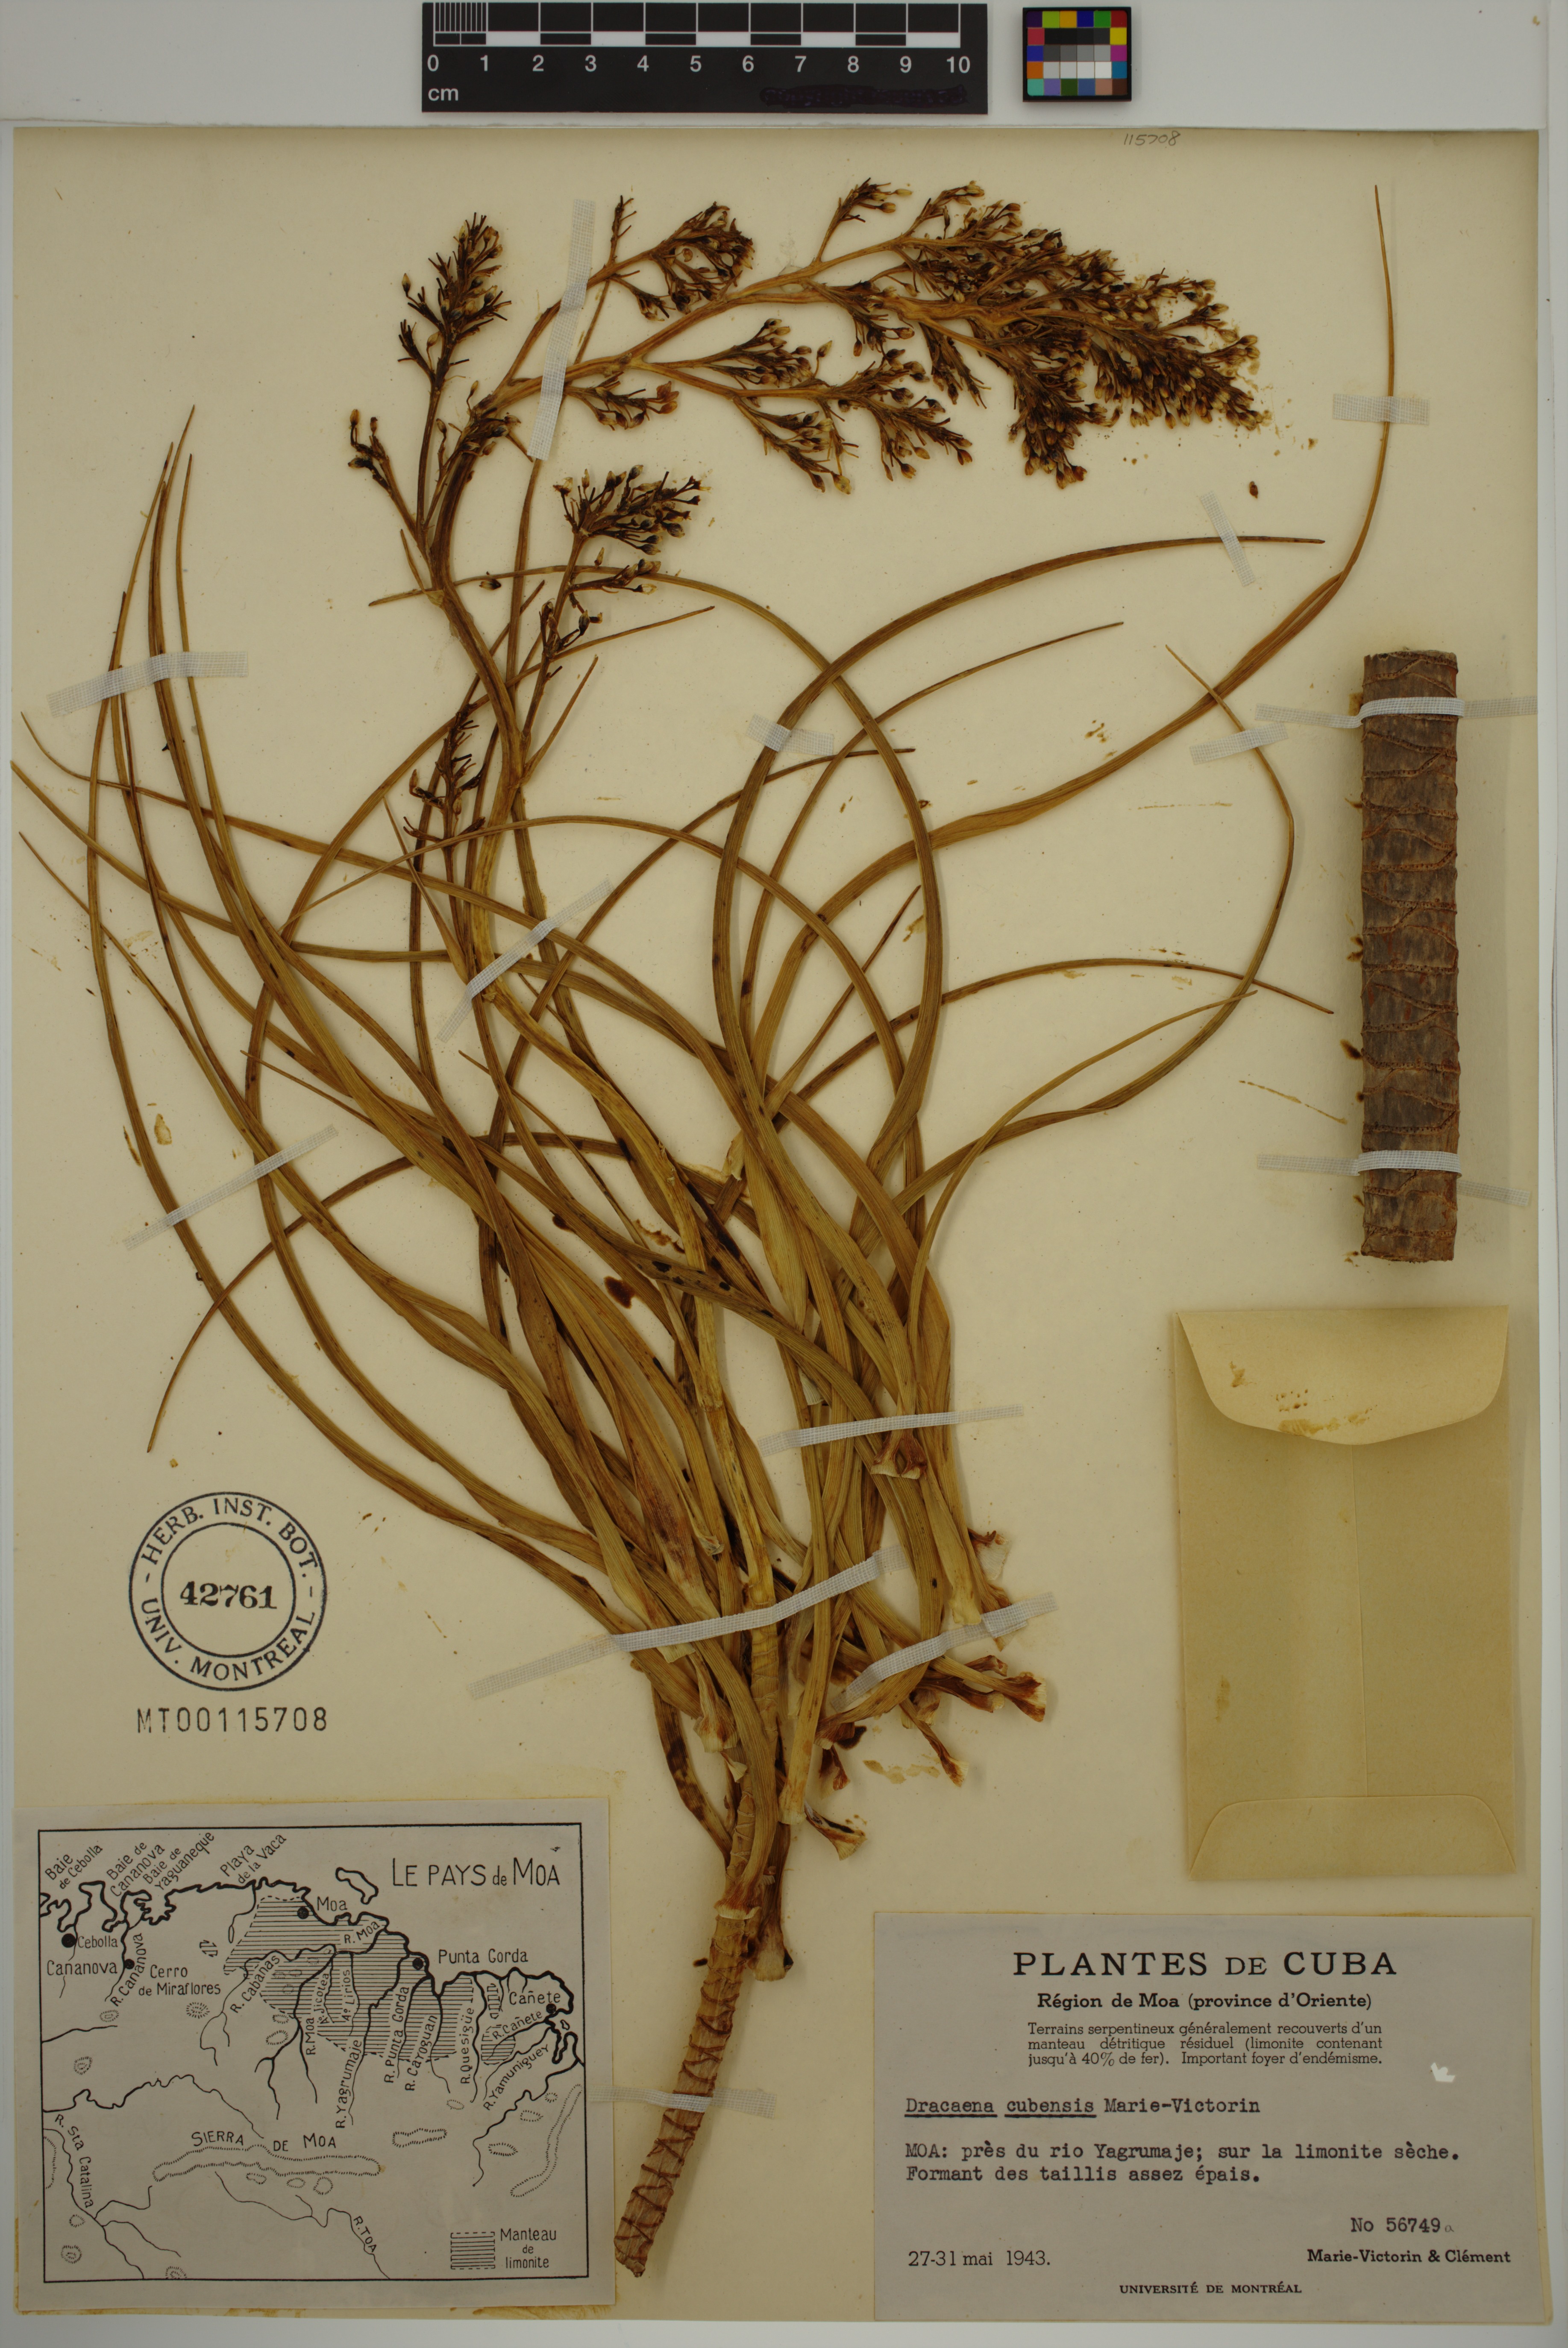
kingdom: Plantae
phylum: Tracheophyta
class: Liliopsida
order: Asparagales
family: Asparagaceae
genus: Dracaena
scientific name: Dracaena cubensis
